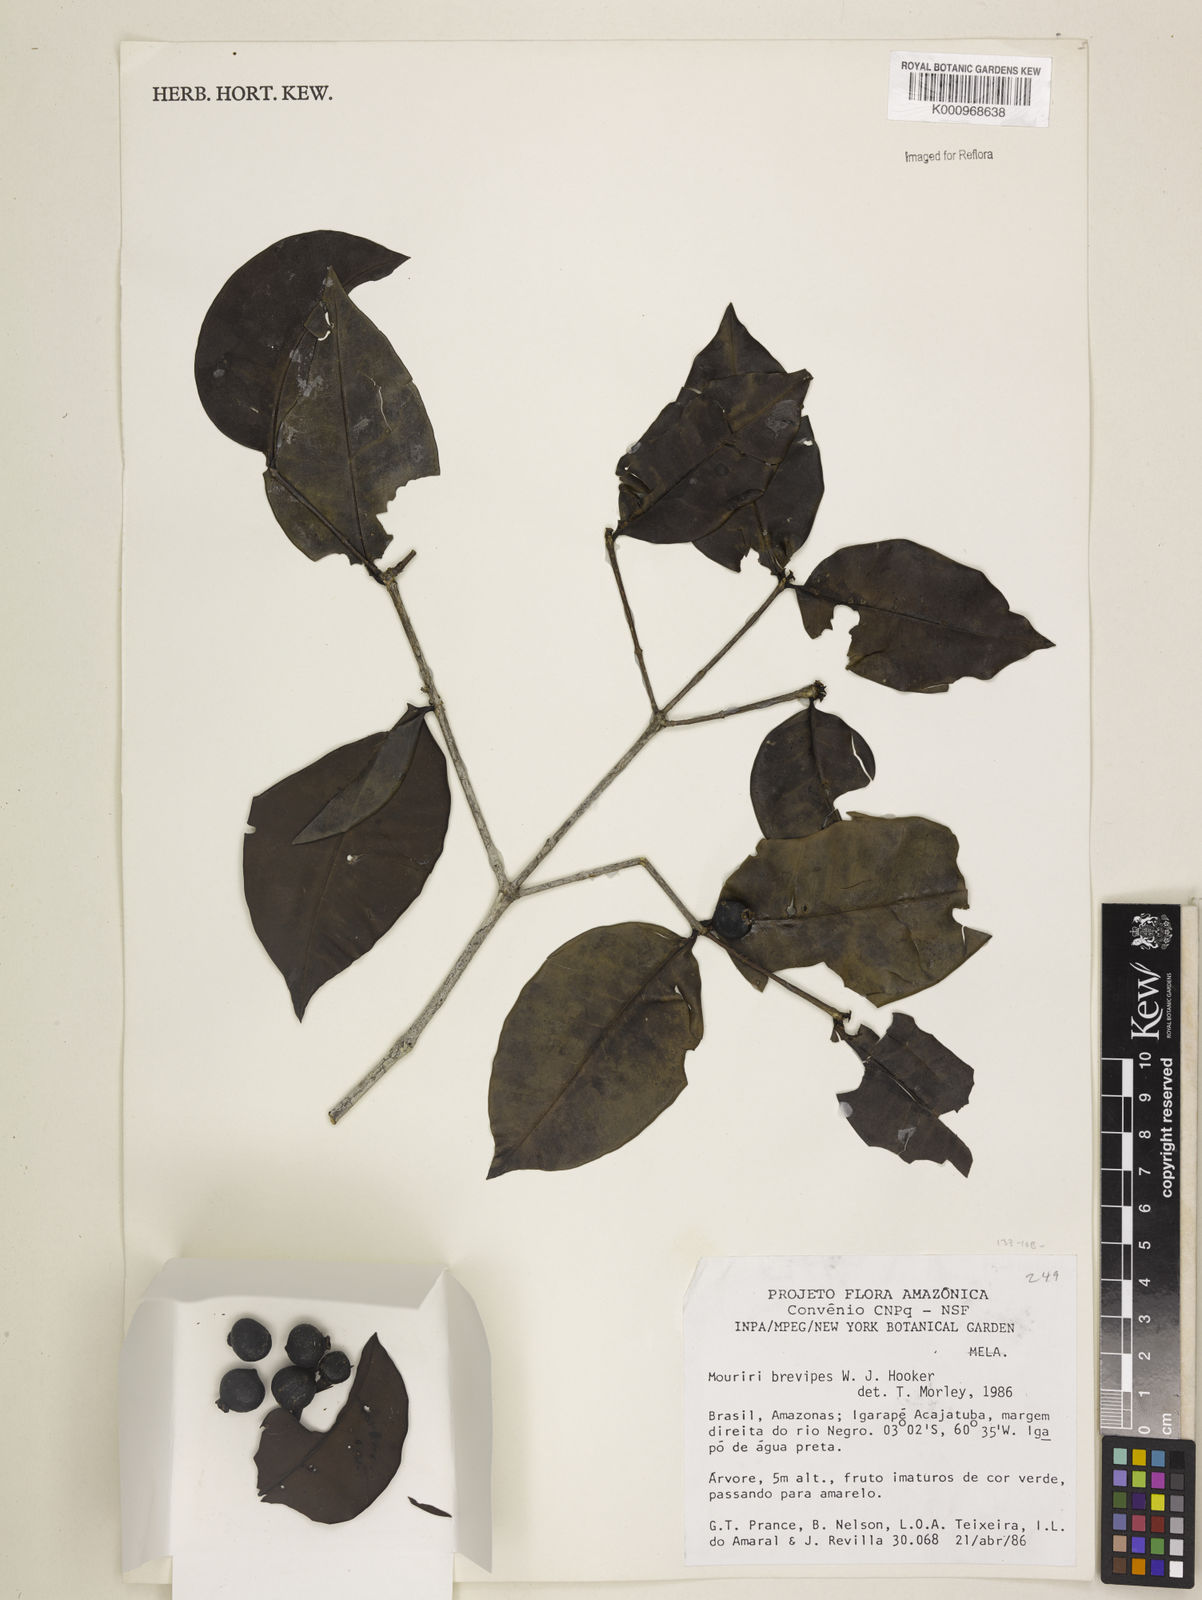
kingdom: Plantae
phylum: Tracheophyta
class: Magnoliopsida
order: Myrtales
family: Melastomataceae
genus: Mouriri
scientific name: Mouriri
